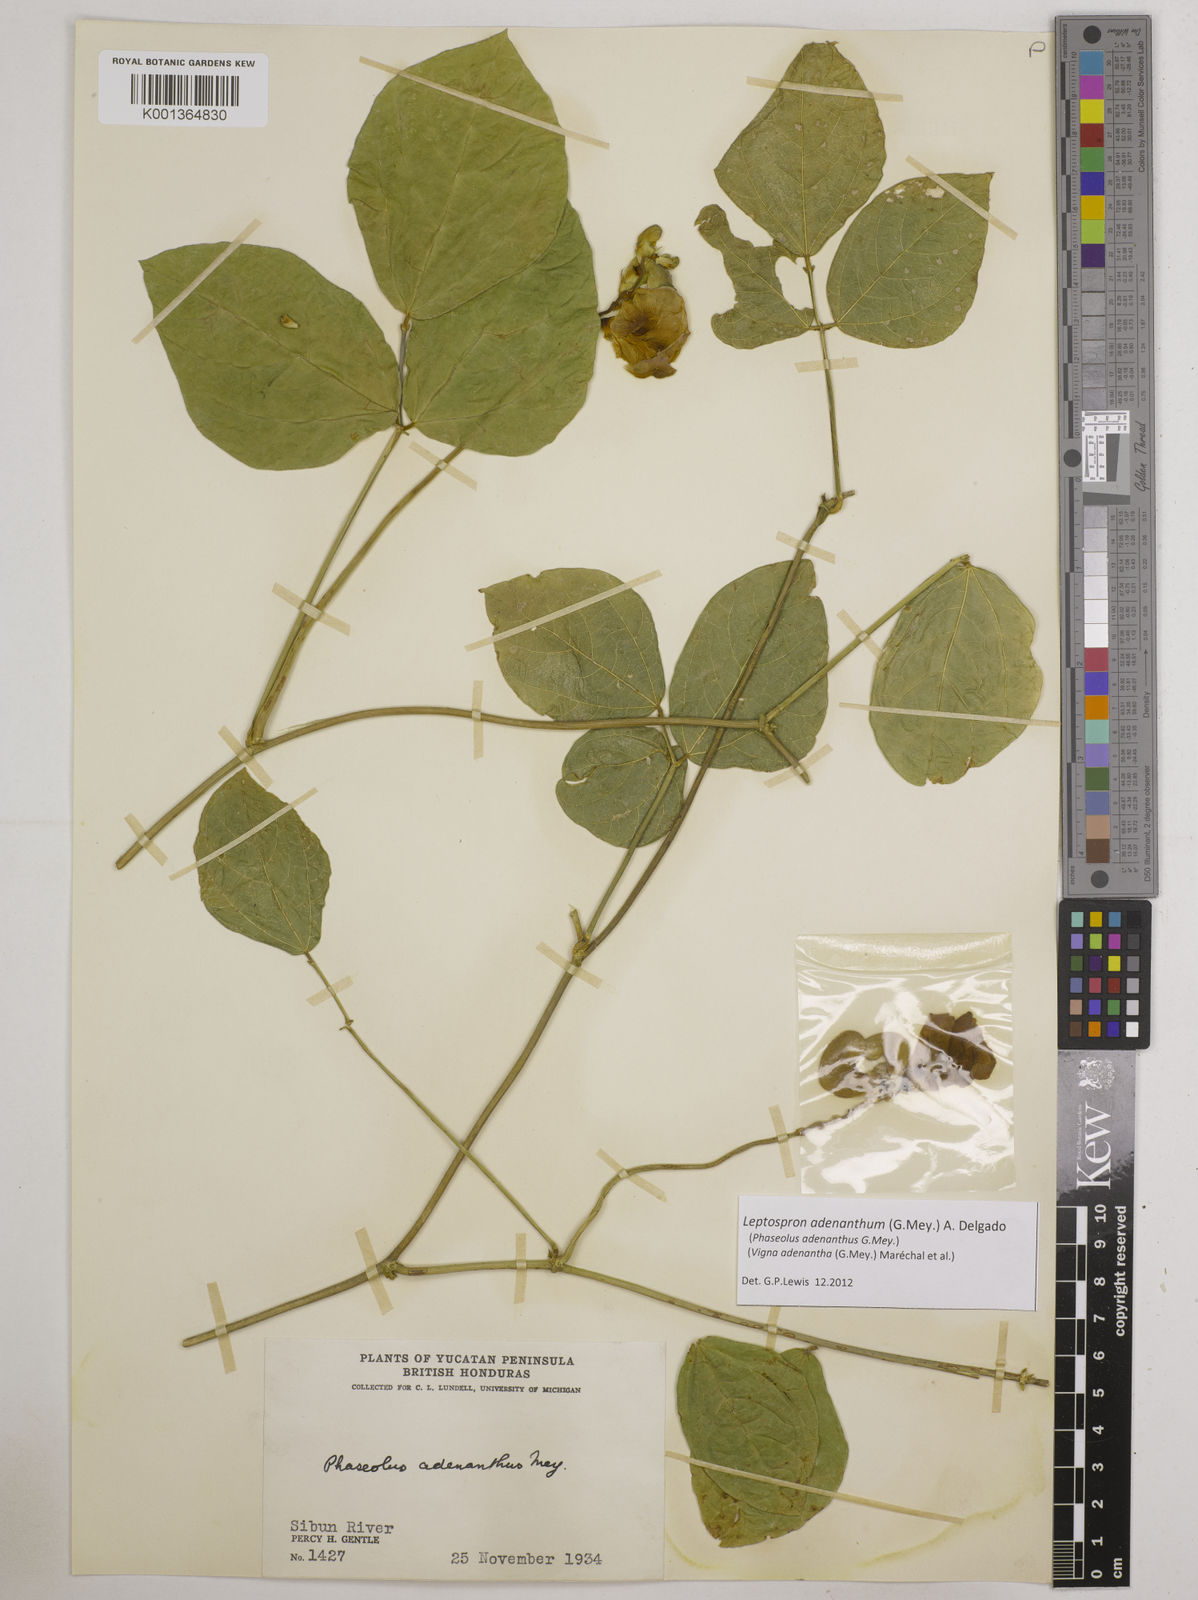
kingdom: Plantae
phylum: Tracheophyta
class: Magnoliopsida
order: Fabales
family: Fabaceae
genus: Leptospron
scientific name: Leptospron adenanthum
